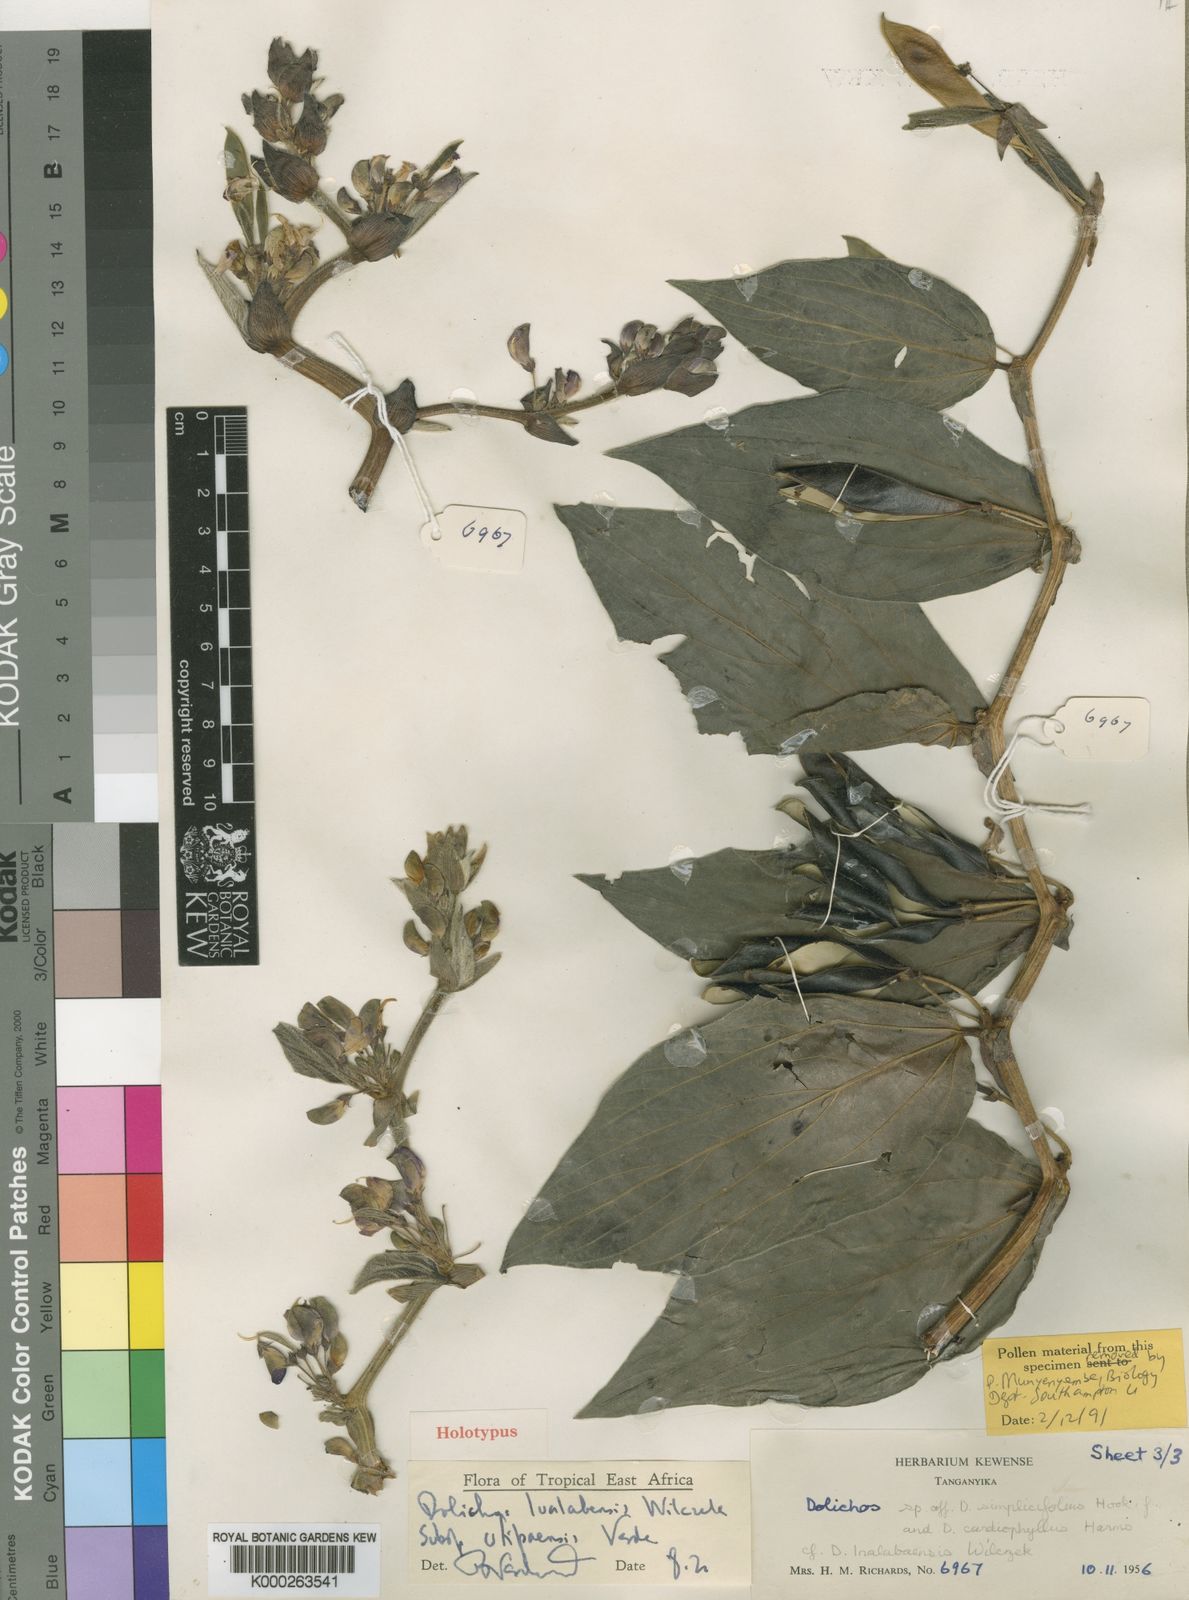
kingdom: Plantae
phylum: Tracheophyta
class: Magnoliopsida
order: Fabales
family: Fabaceae
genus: Dolichos
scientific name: Dolichos lualabensis
